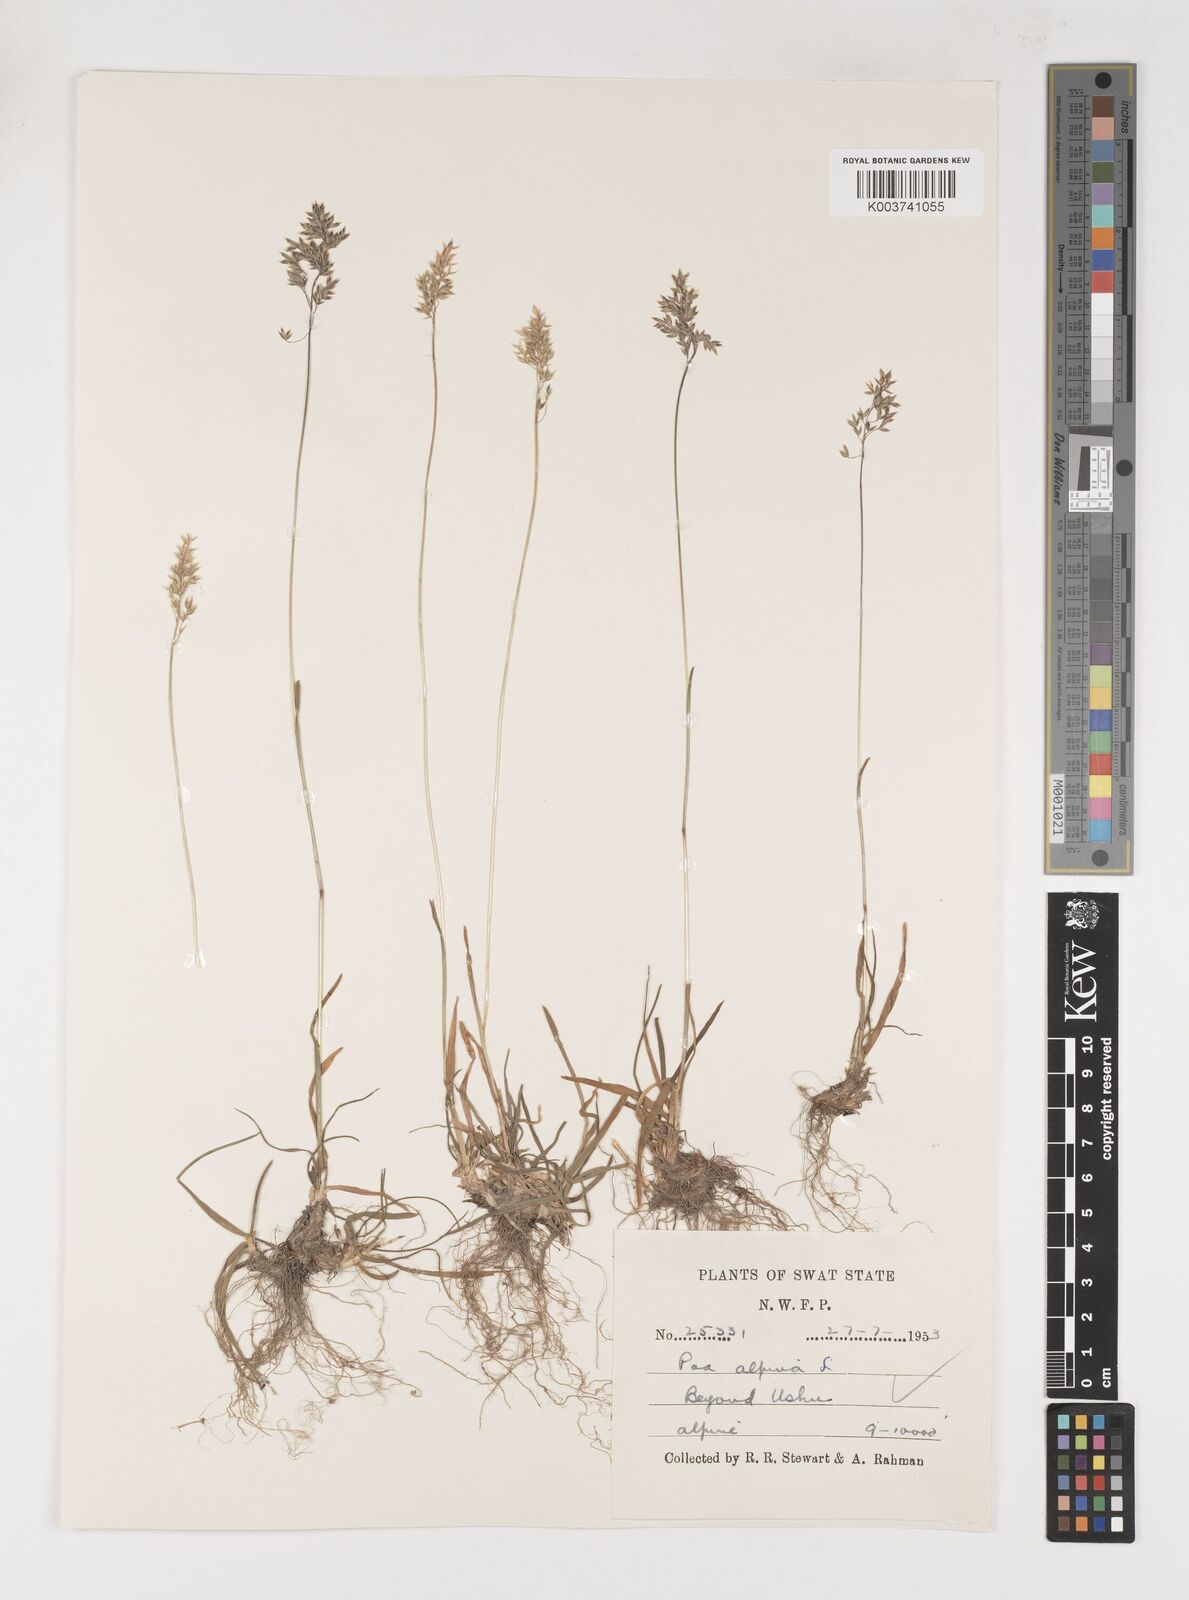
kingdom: Plantae
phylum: Tracheophyta
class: Liliopsida
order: Poales
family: Poaceae
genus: Poa
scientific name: Poa alpina
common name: Alpine bluegrass
